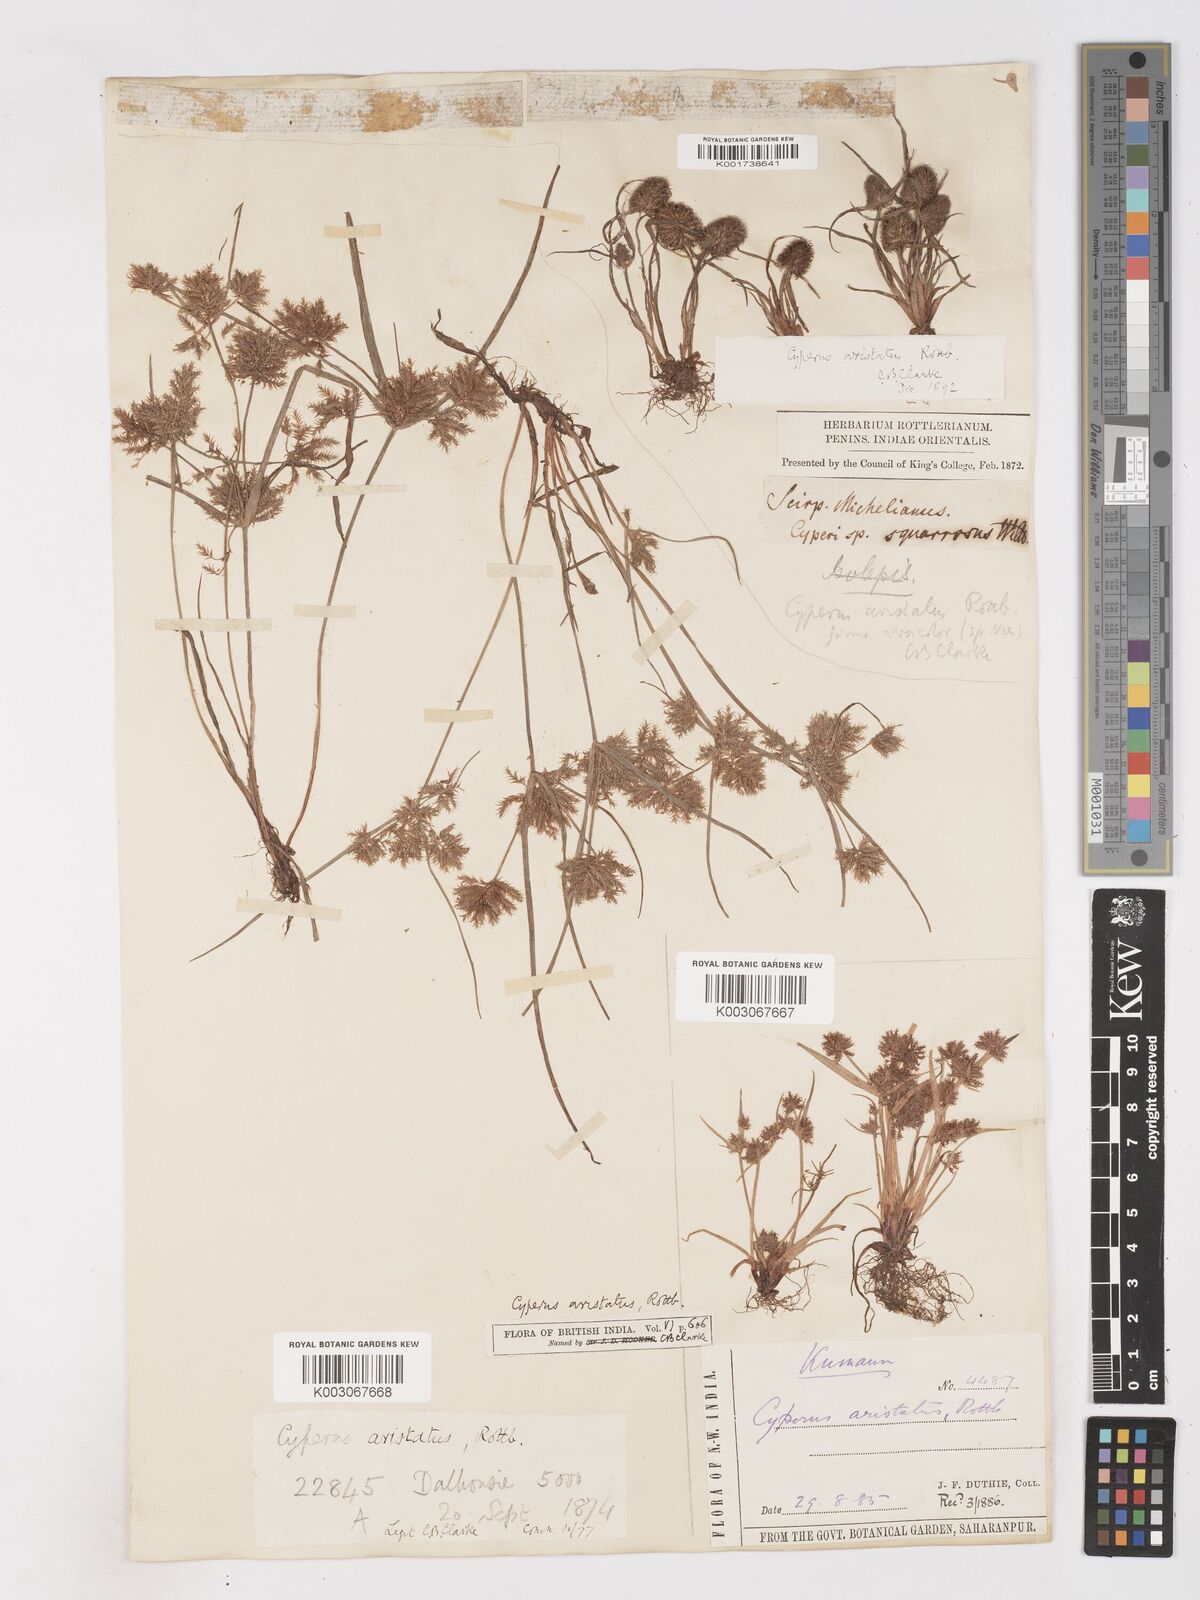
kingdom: Plantae
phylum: Tracheophyta
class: Liliopsida
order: Poales
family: Cyperaceae
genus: Cyperus
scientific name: Cyperus squarrosus
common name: Awned cyperus
